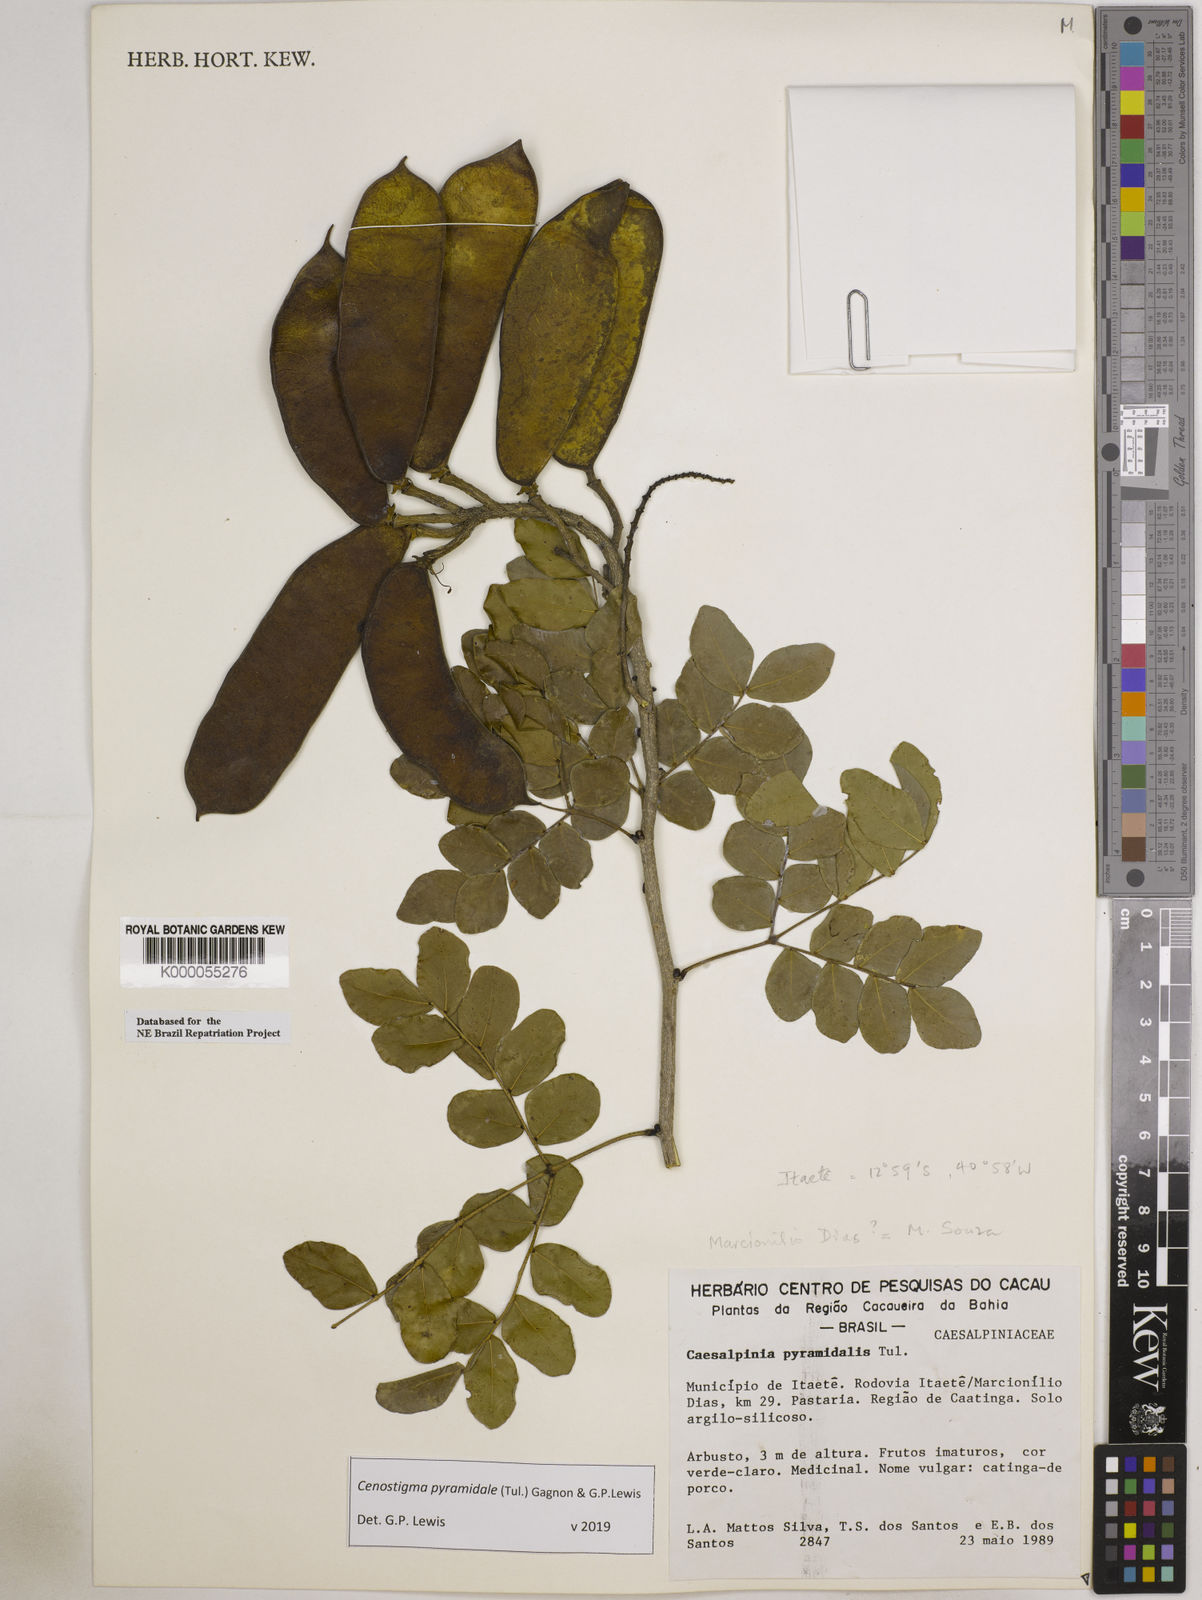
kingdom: Plantae
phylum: Tracheophyta
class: Magnoliopsida
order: Fabales
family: Fabaceae
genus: Cenostigma
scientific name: Cenostigma pyramidale
